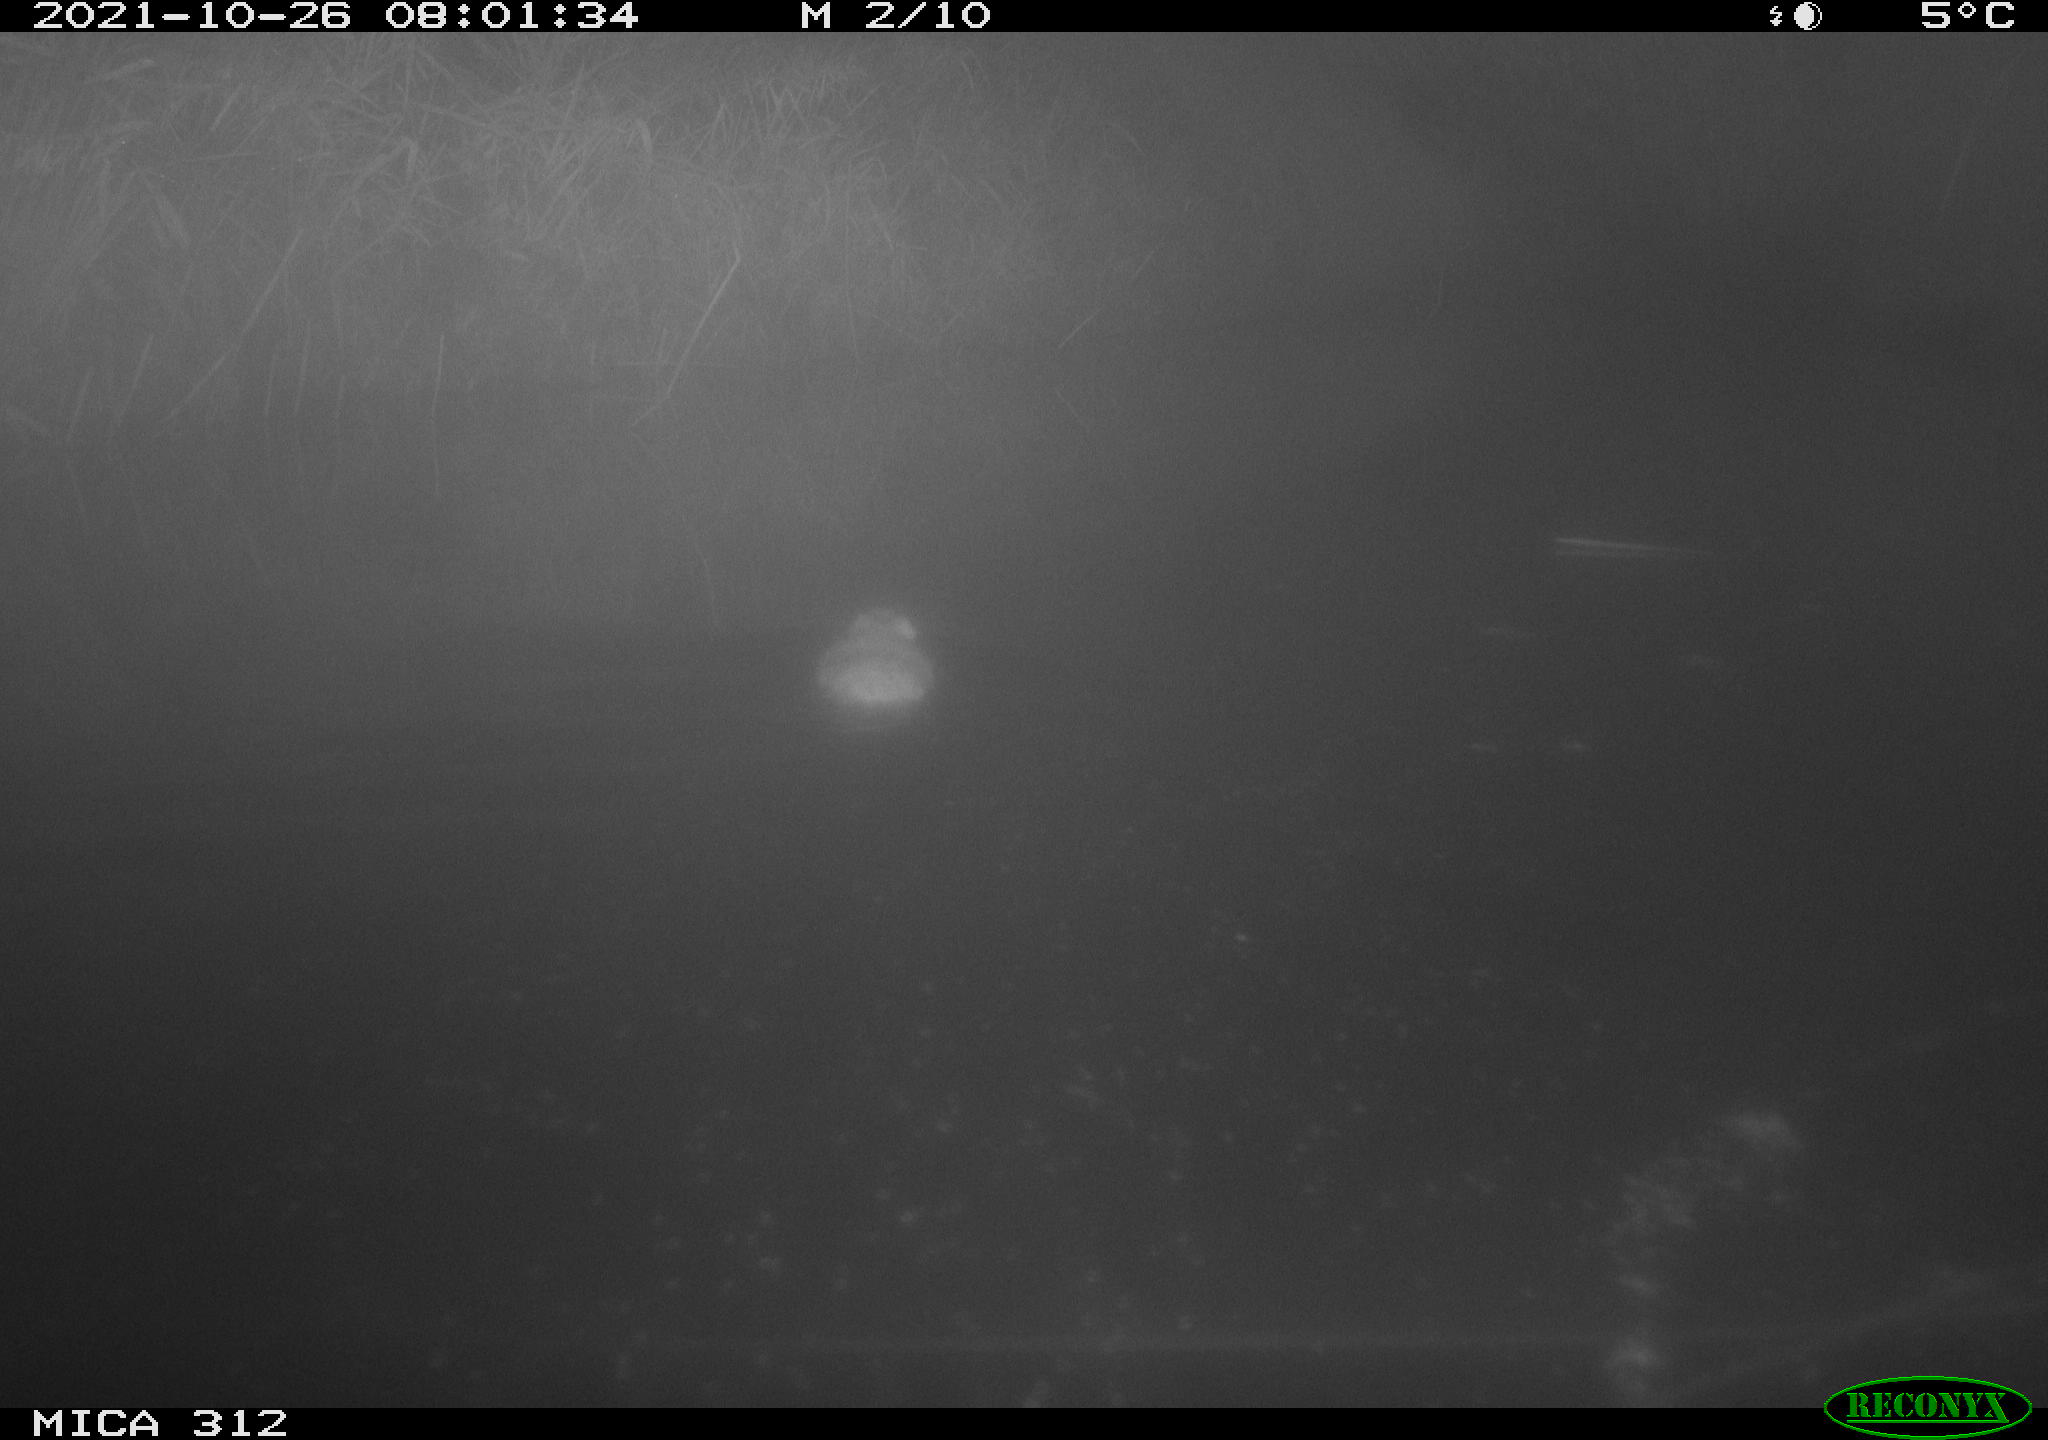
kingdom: Animalia
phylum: Chordata
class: Mammalia
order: Rodentia
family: Cricetidae
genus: Ondatra
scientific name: Ondatra zibethicus
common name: Muskrat
